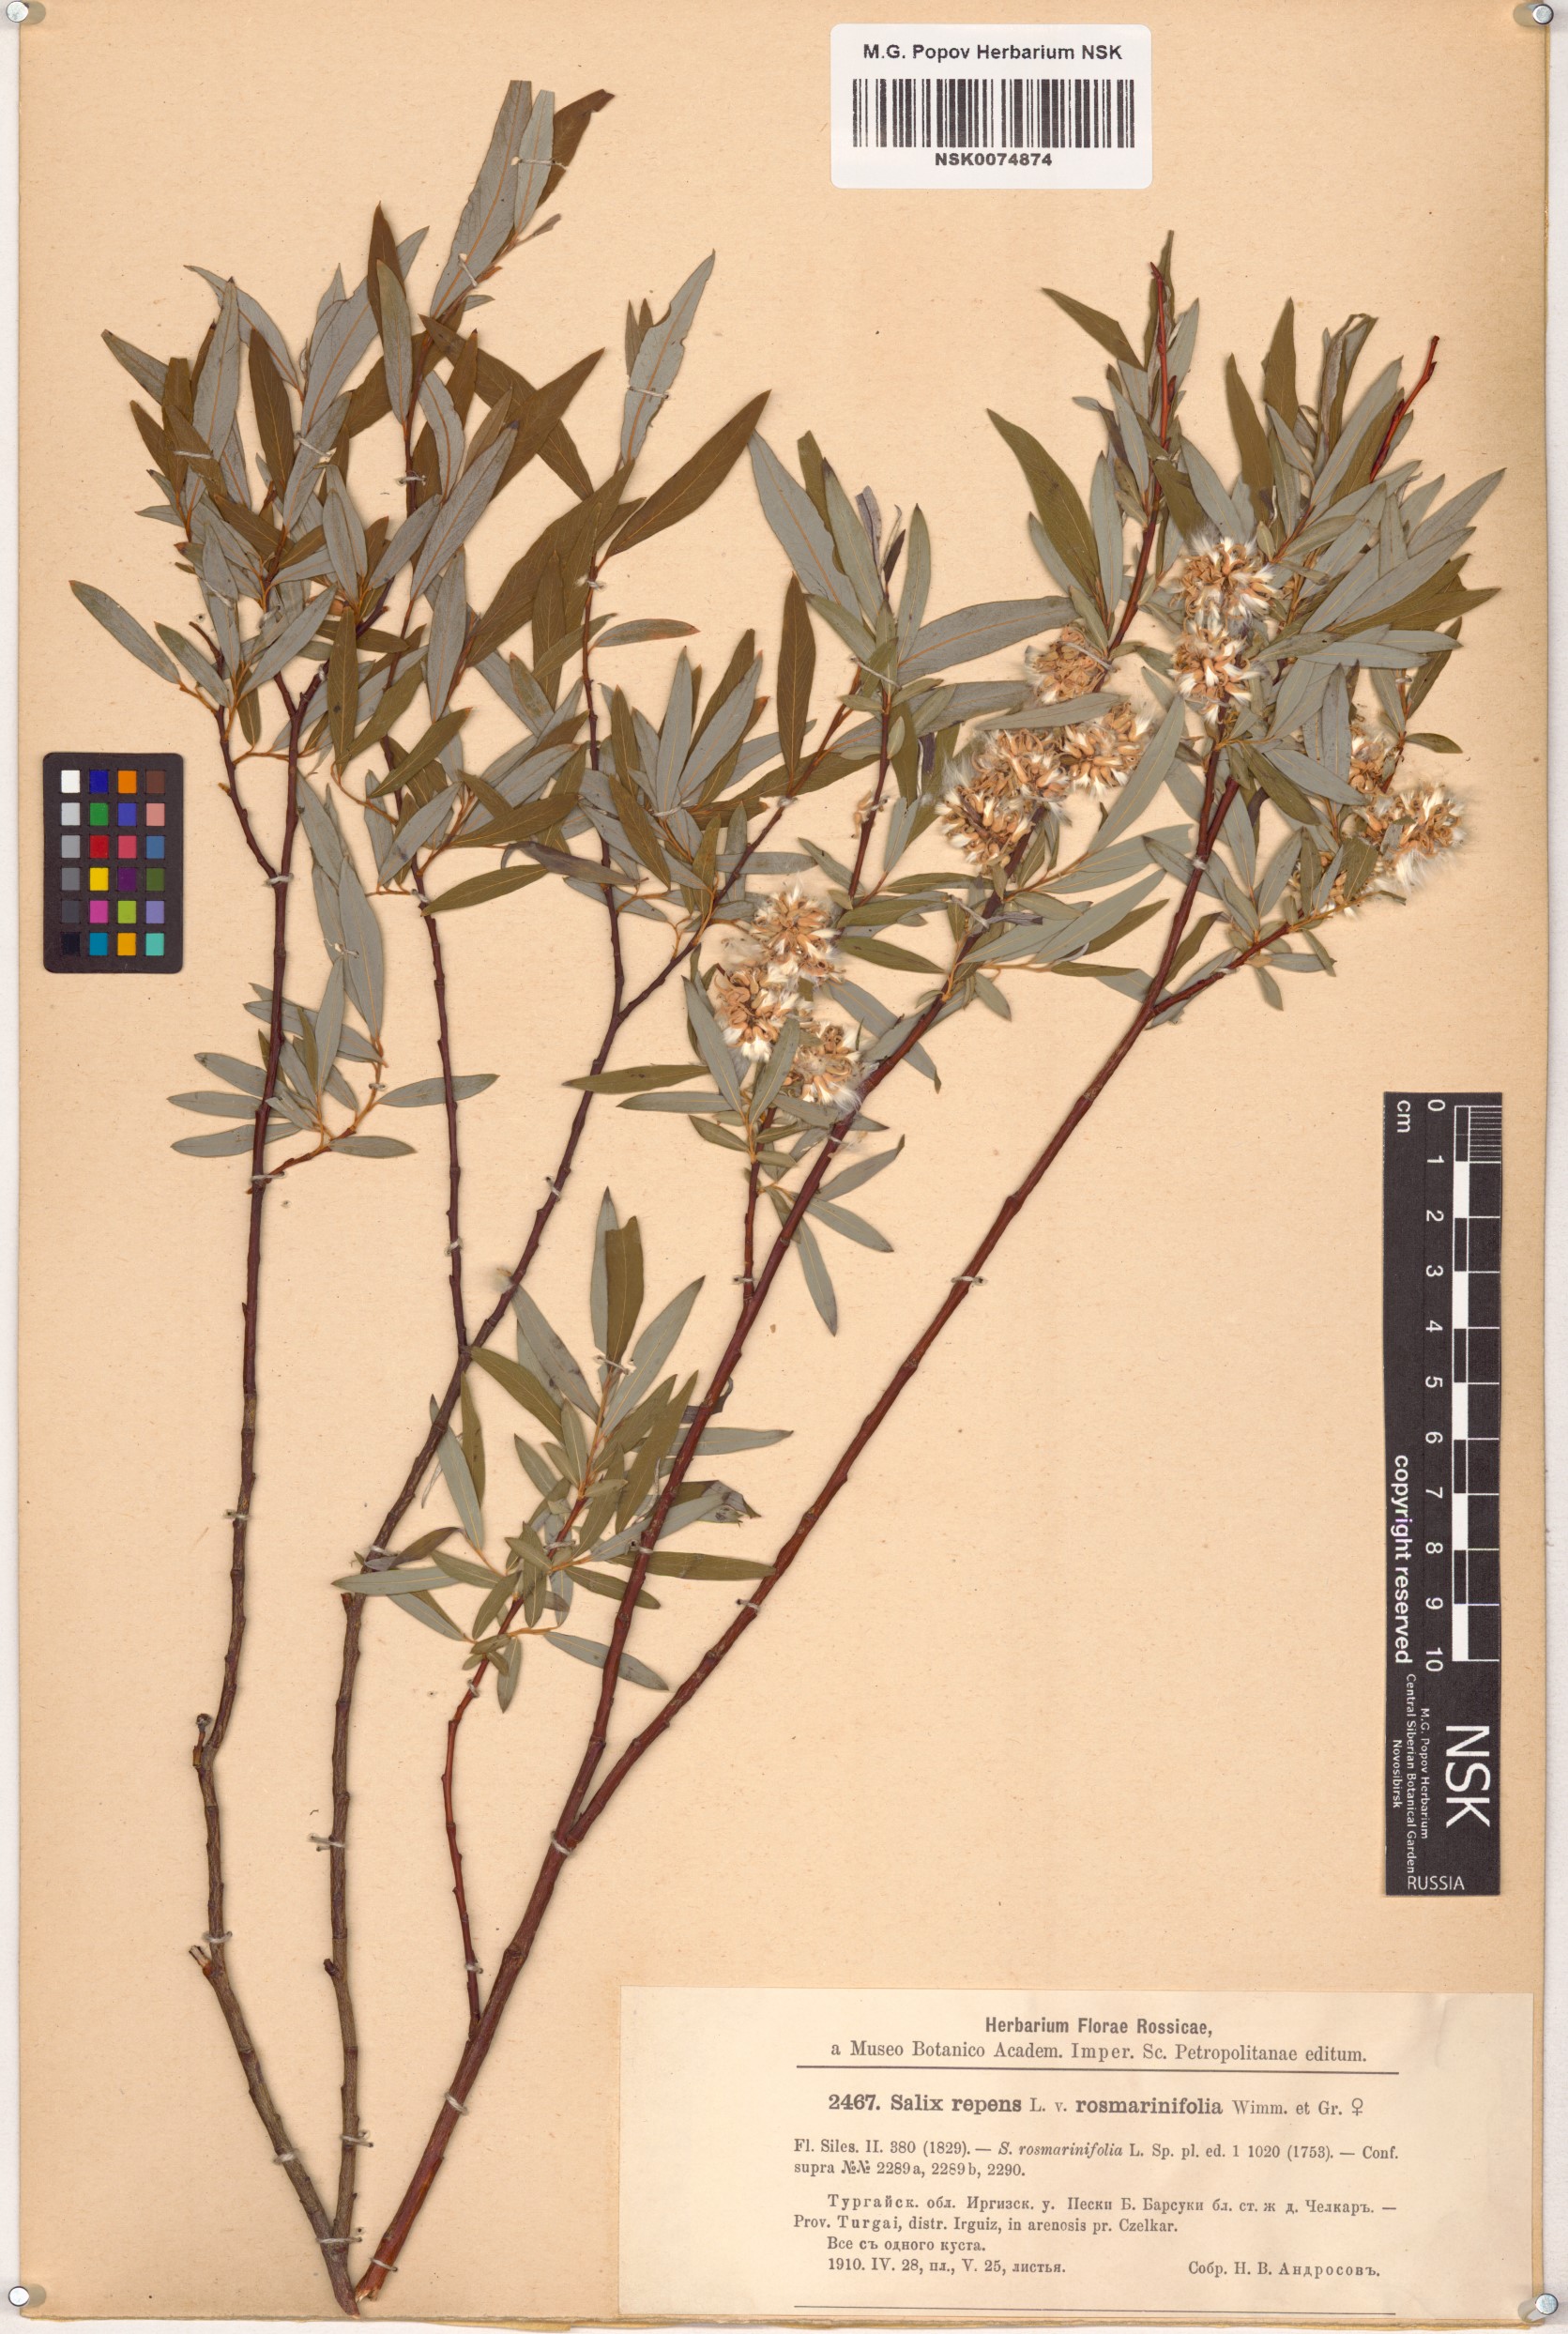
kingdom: Plantae
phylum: Tracheophyta
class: Magnoliopsida
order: Malpighiales
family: Salicaceae
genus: Salix
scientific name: Salix
